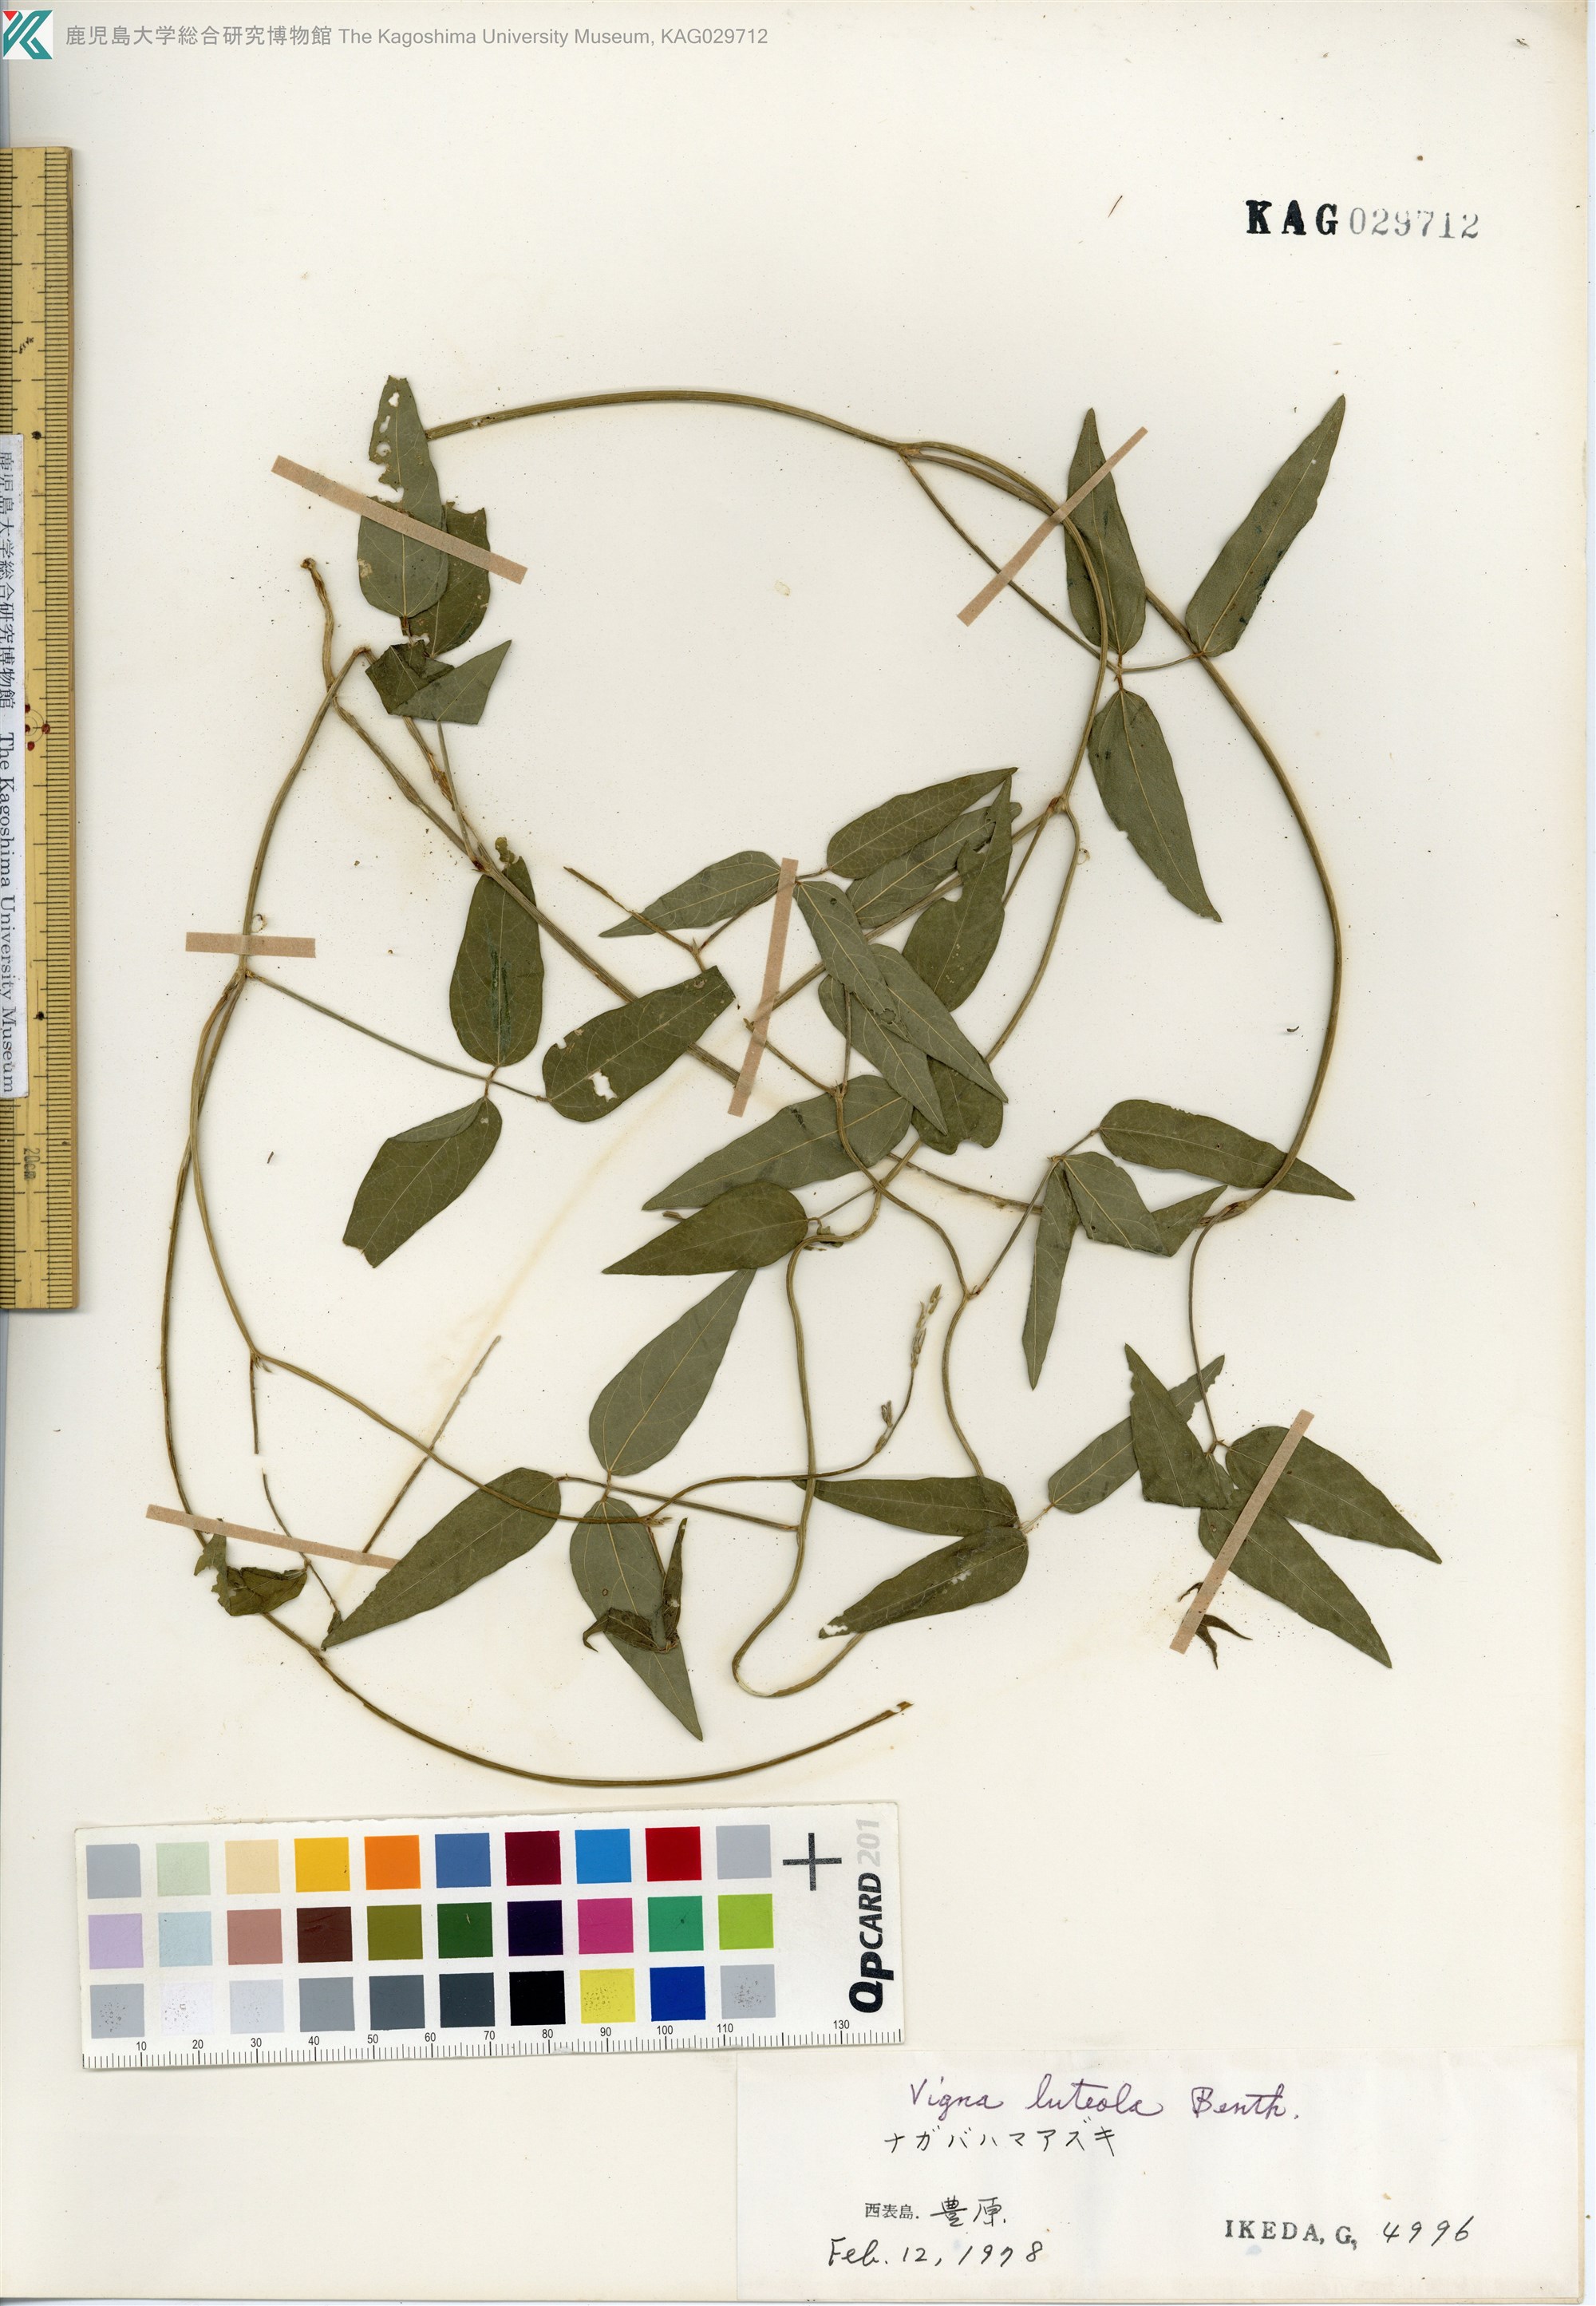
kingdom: Plantae
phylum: Tracheophyta
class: Magnoliopsida
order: Fabales
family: Fabaceae
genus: Vigna
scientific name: Vigna luteola
